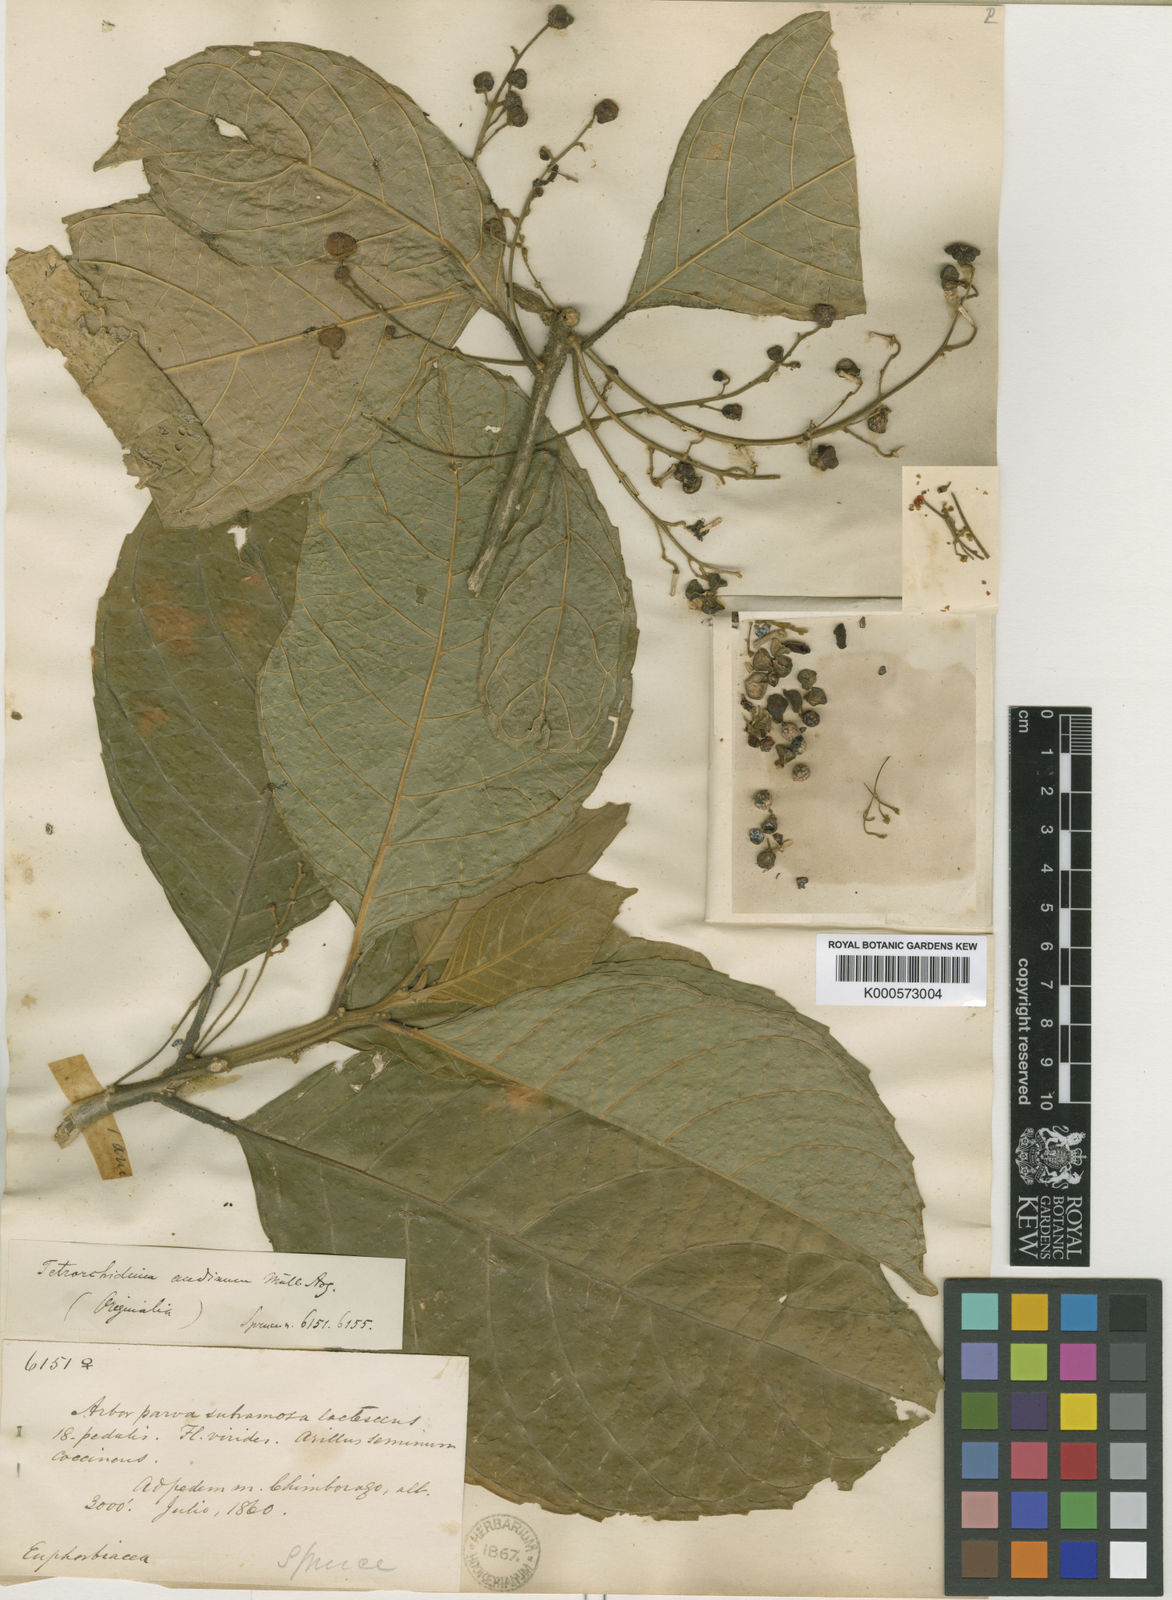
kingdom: Plantae
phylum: Tracheophyta
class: Magnoliopsida
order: Malpighiales
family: Euphorbiaceae
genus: Tetrorchidium
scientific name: Tetrorchidium
